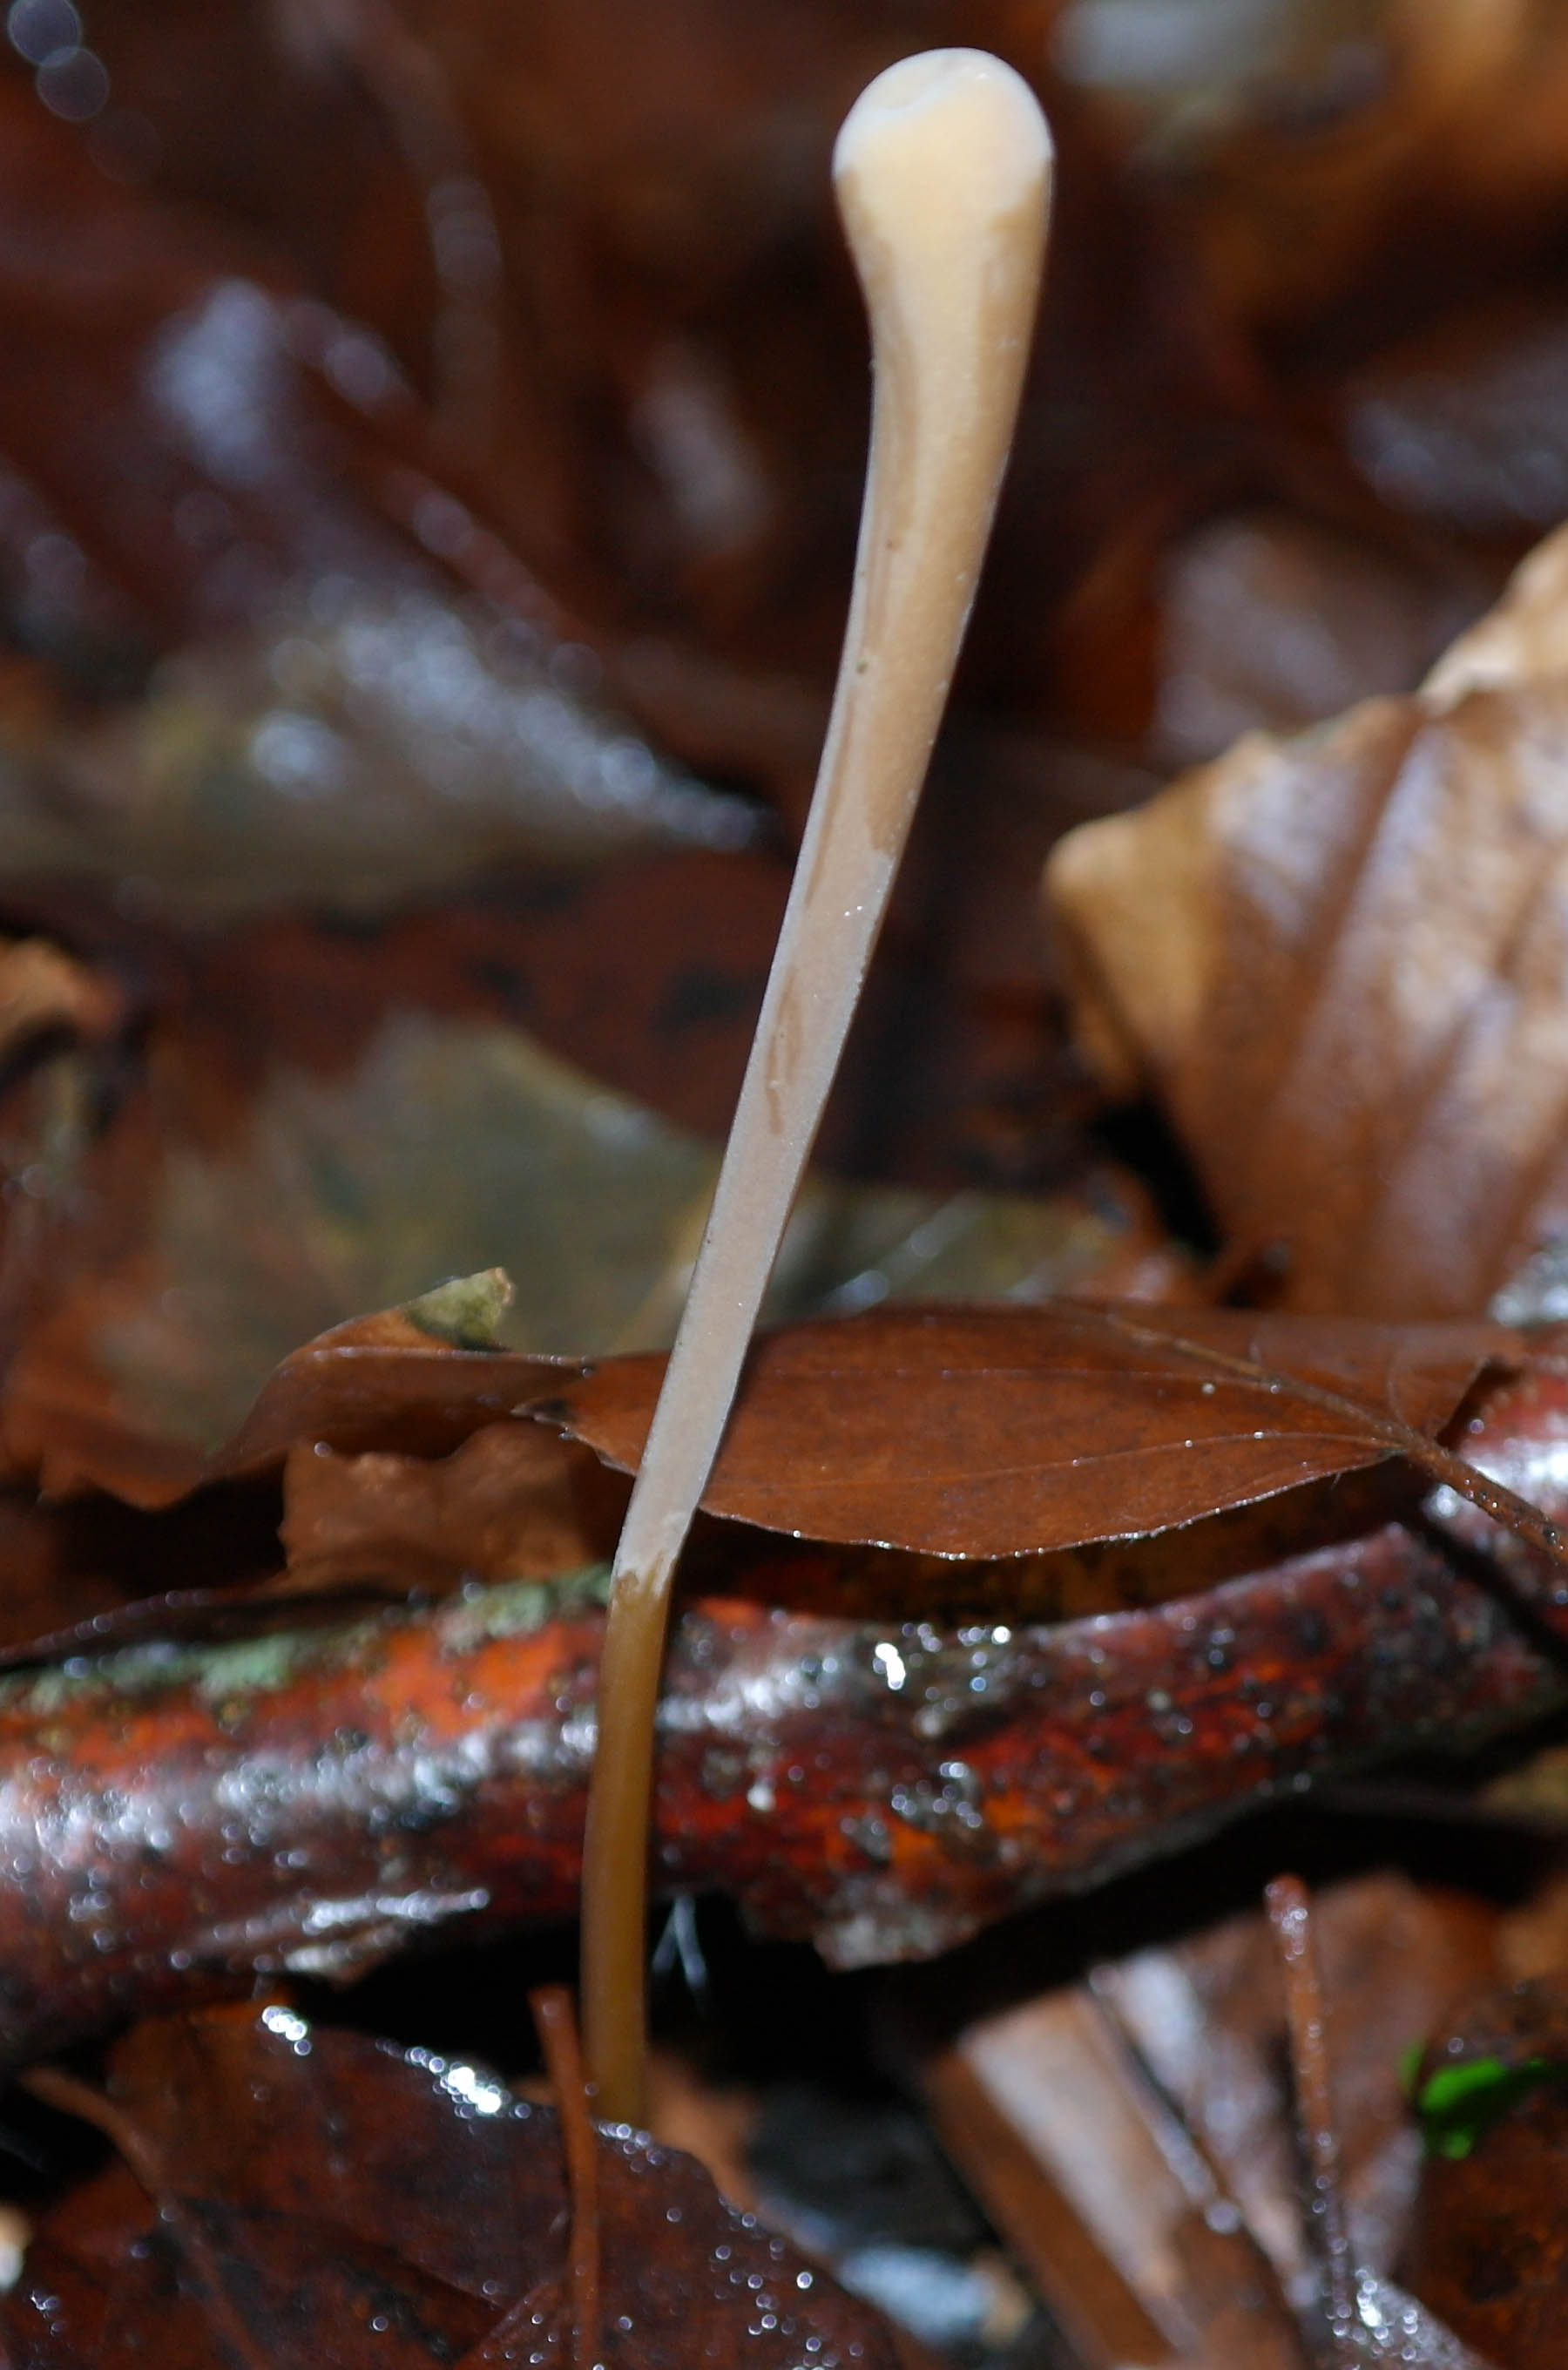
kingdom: Fungi
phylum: Basidiomycota
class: Agaricomycetes
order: Agaricales
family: Typhulaceae
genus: Typhula
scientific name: Typhula fistulosa
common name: pibet rørkølle
